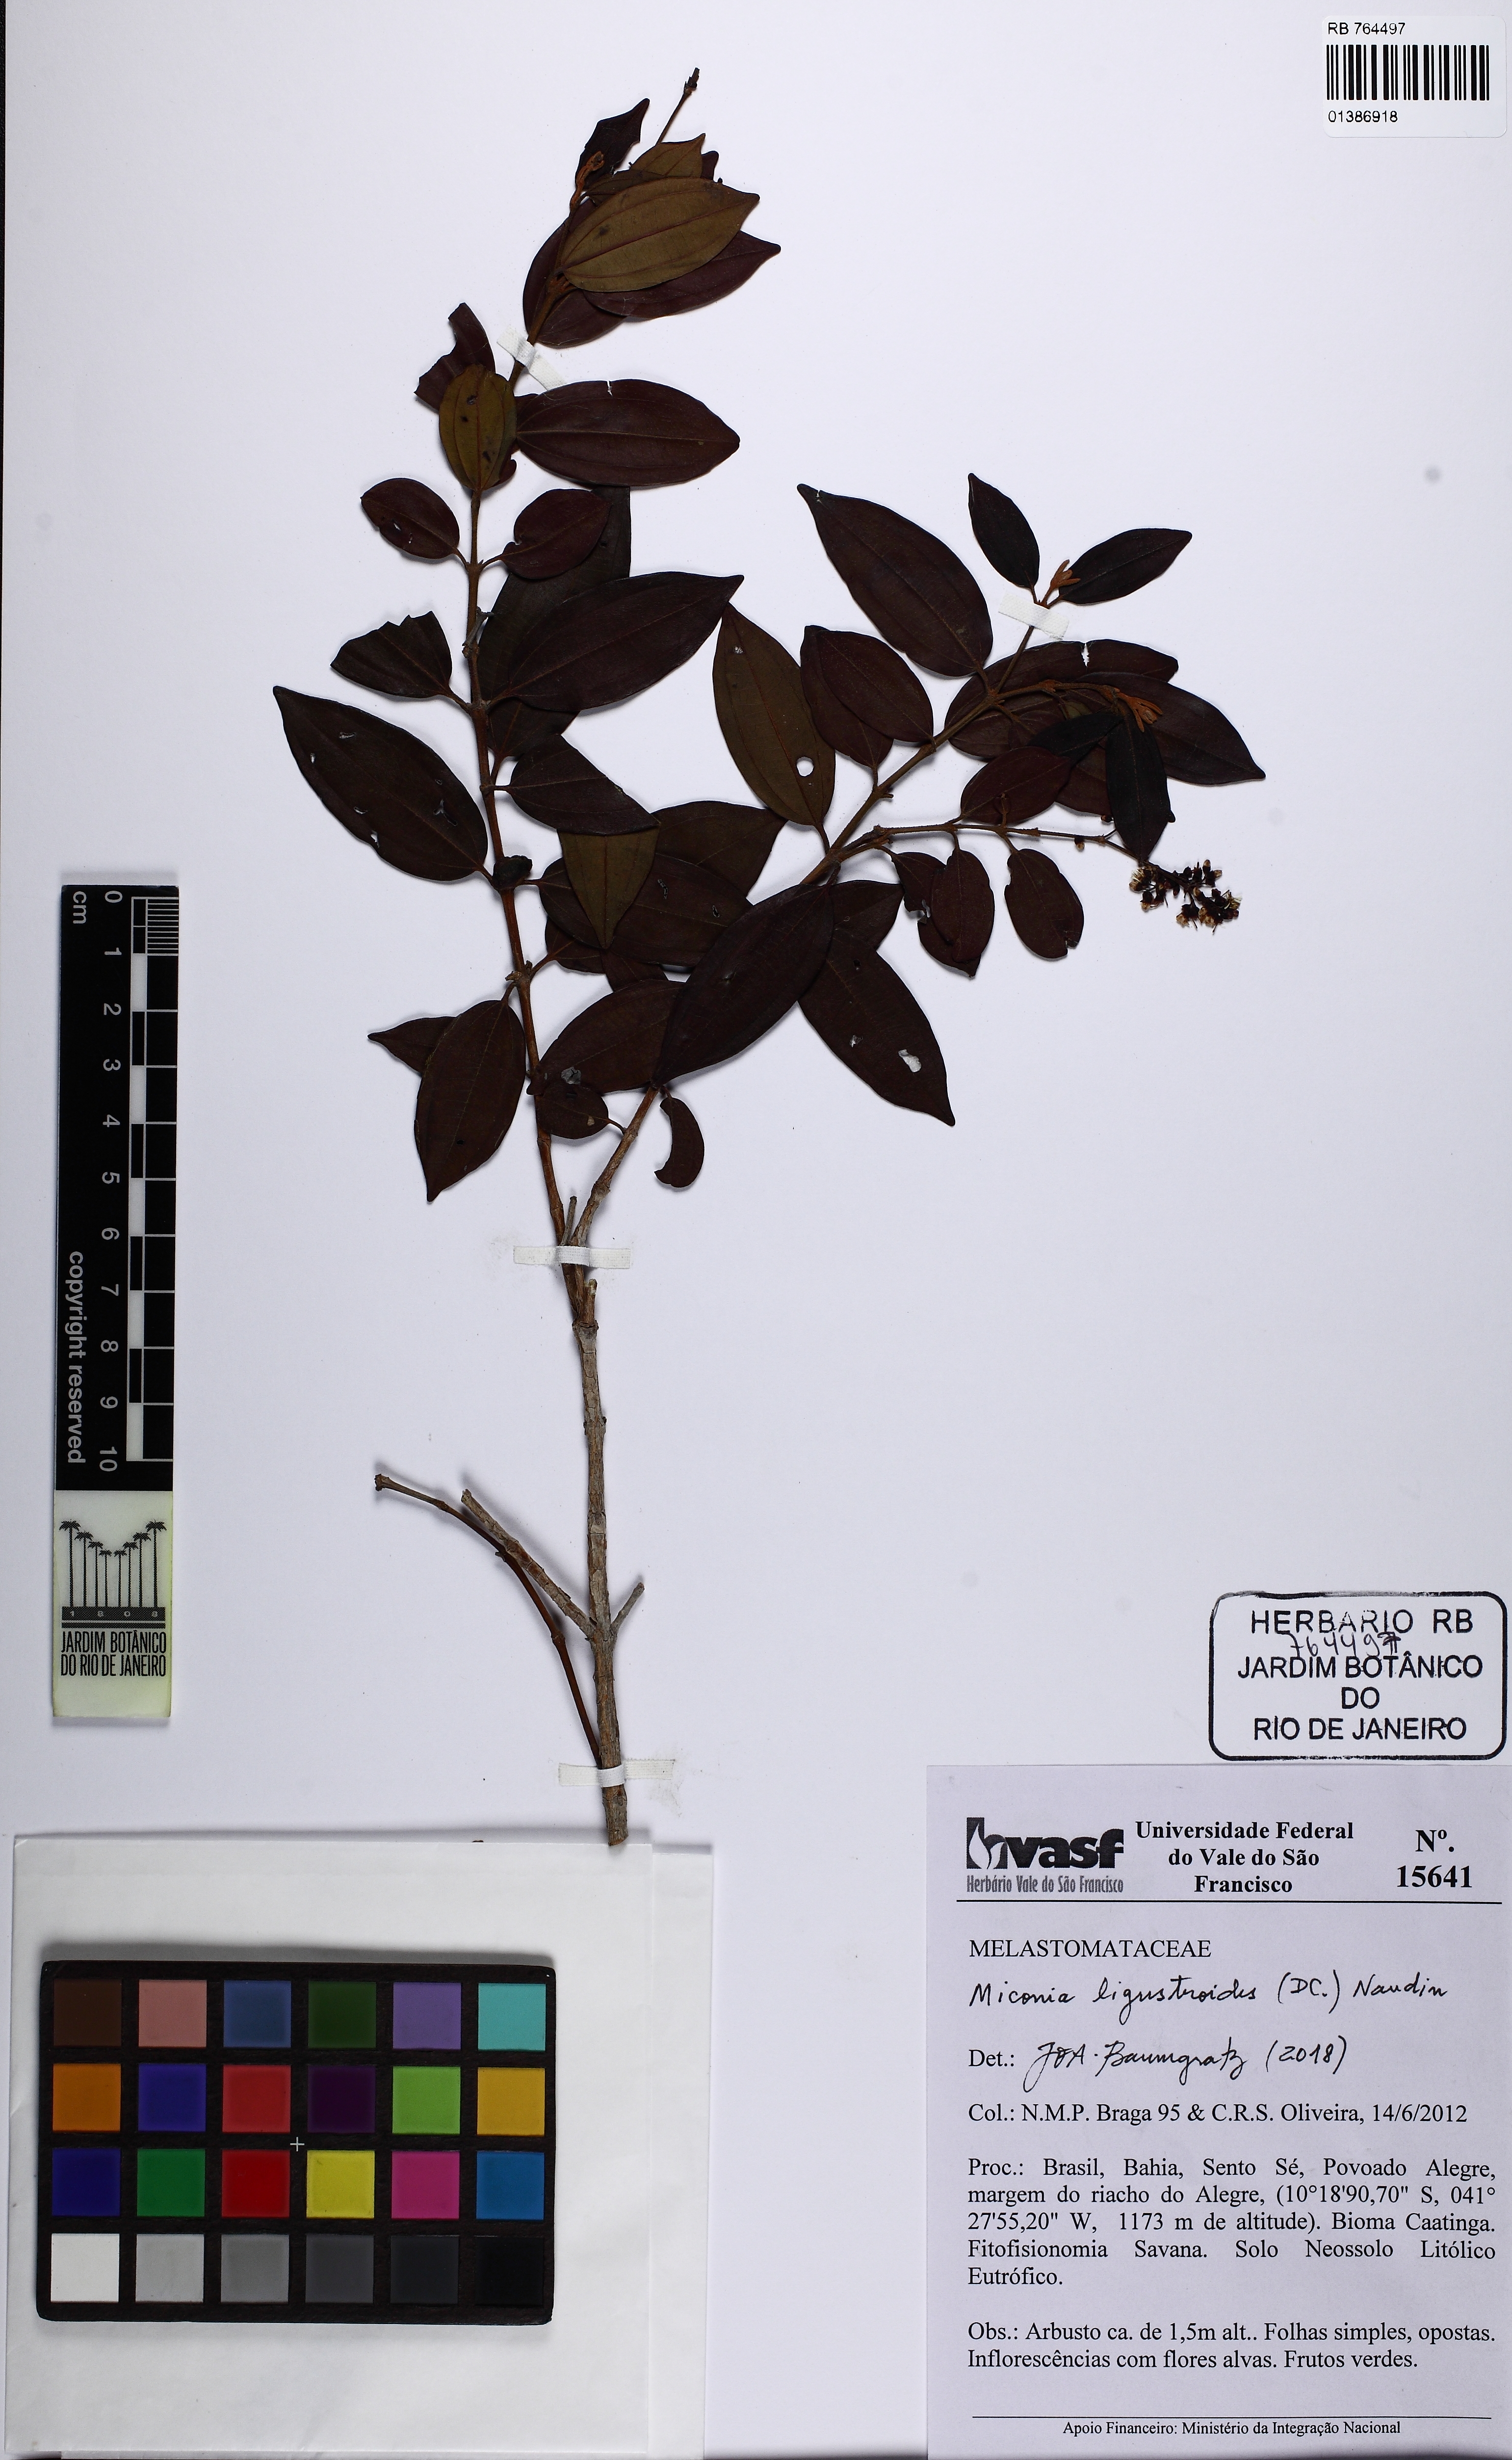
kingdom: Plantae
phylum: Tracheophyta
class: Magnoliopsida
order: Myrtales
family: Melastomataceae
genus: Miconia
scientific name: Miconia ligustroides
